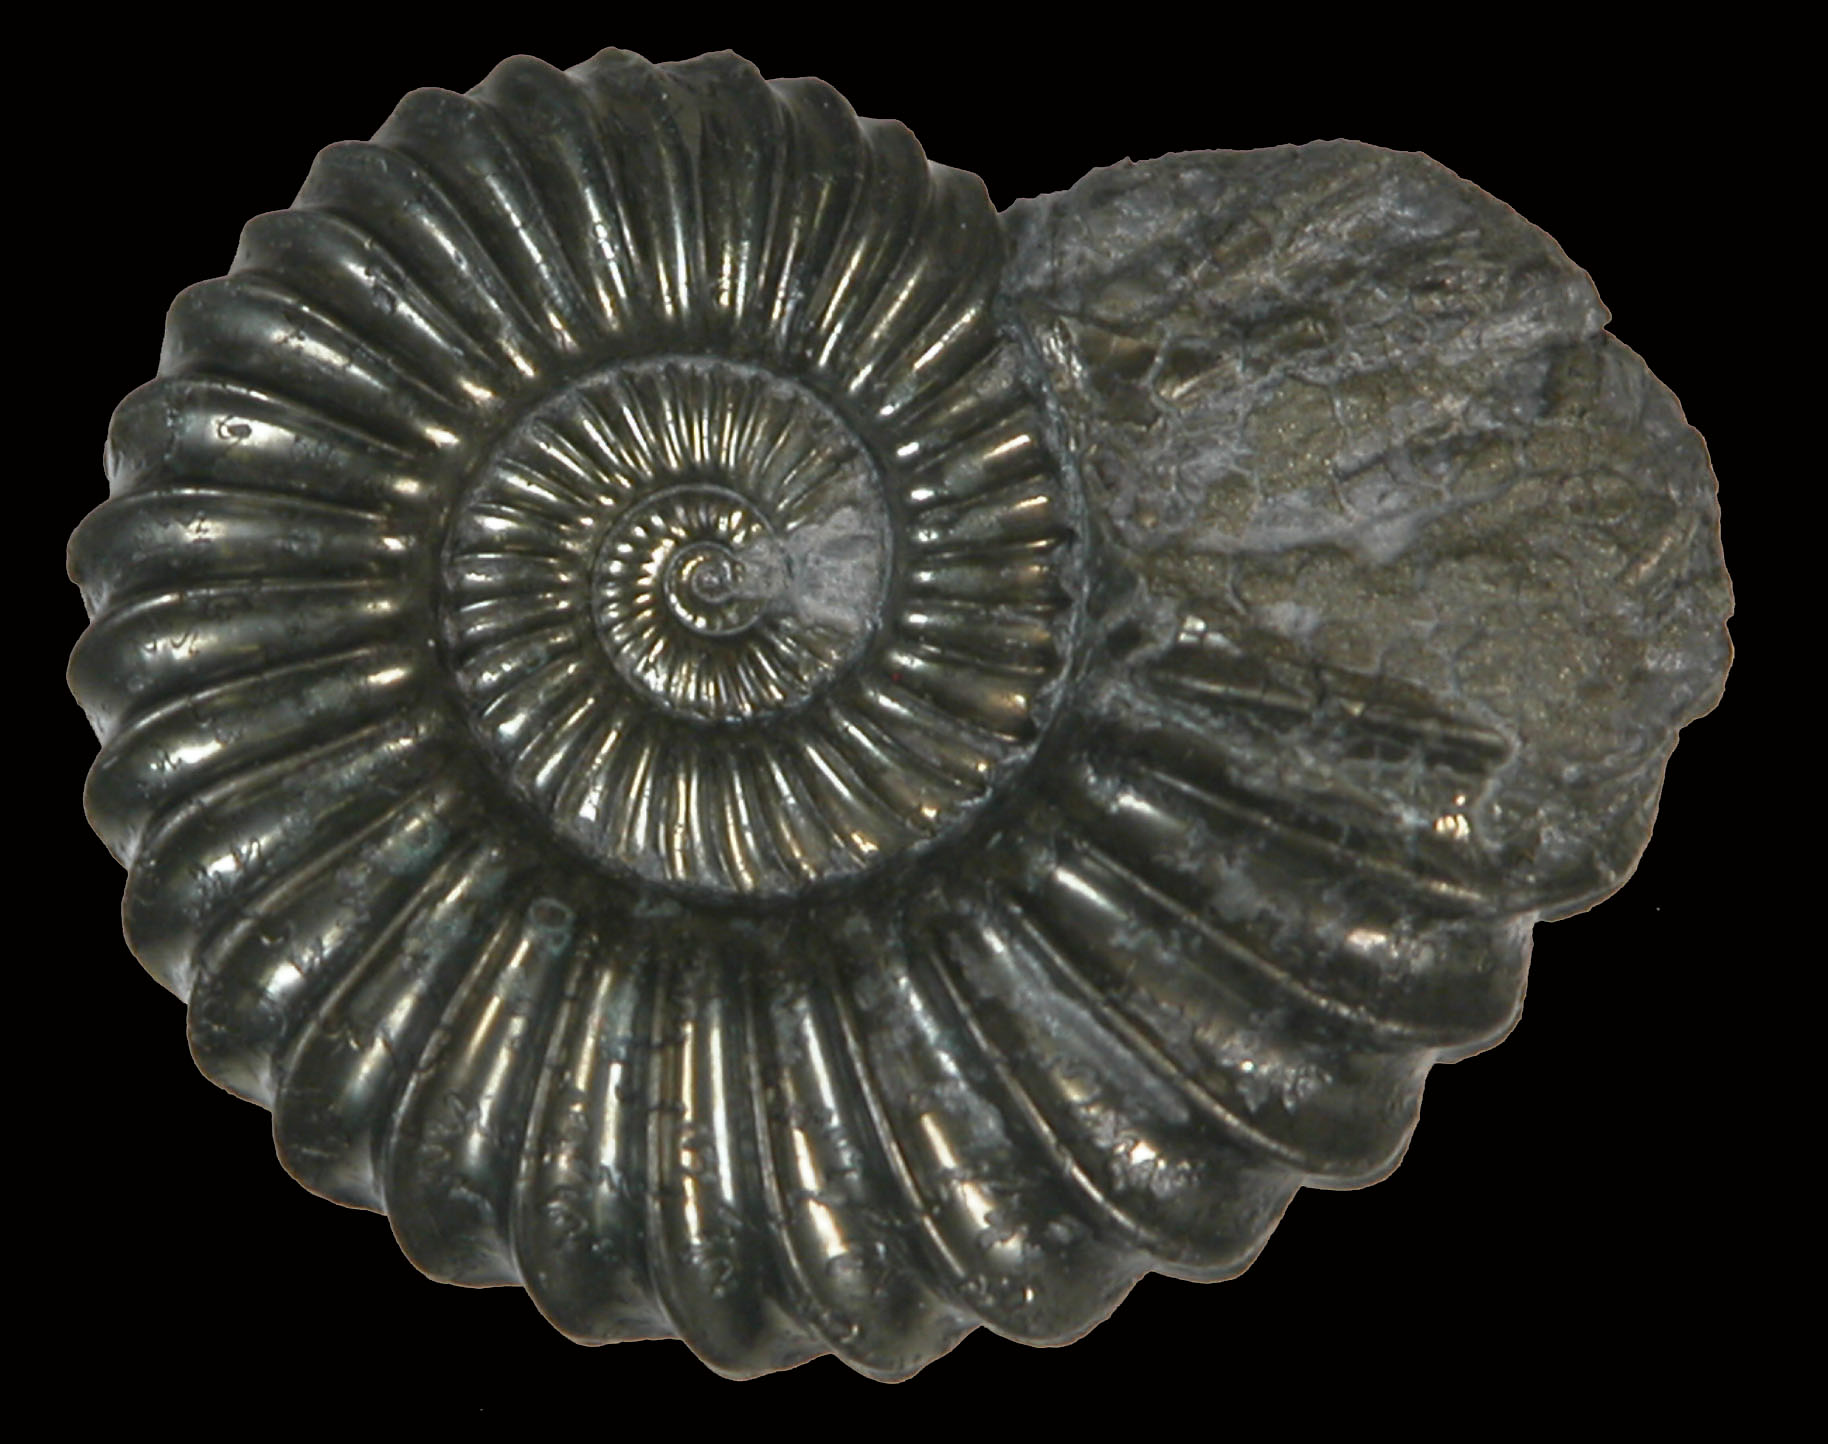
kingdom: Animalia
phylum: Mollusca
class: Cephalopoda
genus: Ammonites
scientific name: Ammonites angulatus
